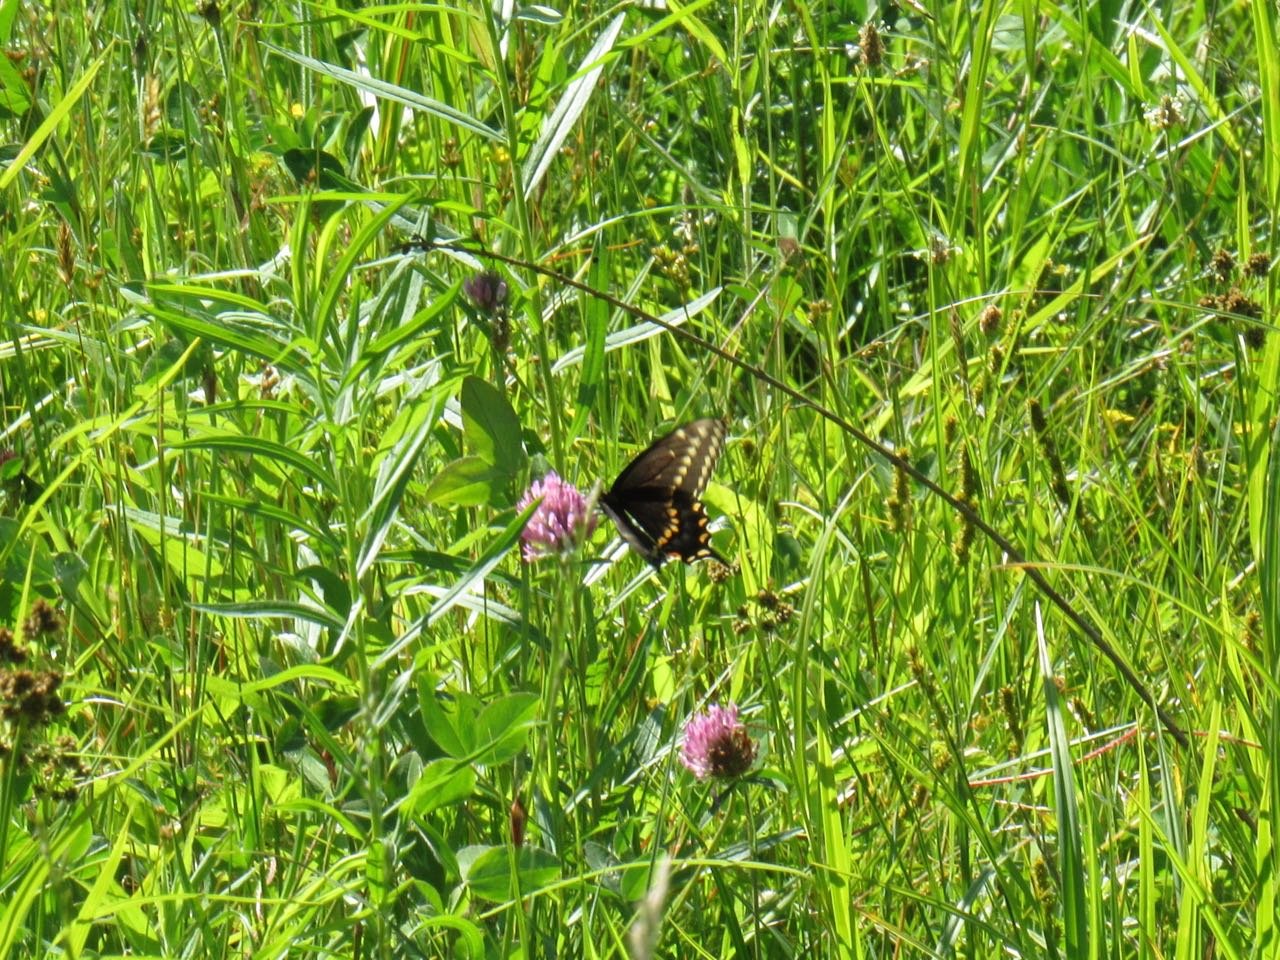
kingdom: Animalia
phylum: Arthropoda
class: Insecta
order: Lepidoptera
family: Papilionidae
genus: Papilio
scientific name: Papilio polyxenes
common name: Black Swallowtail
